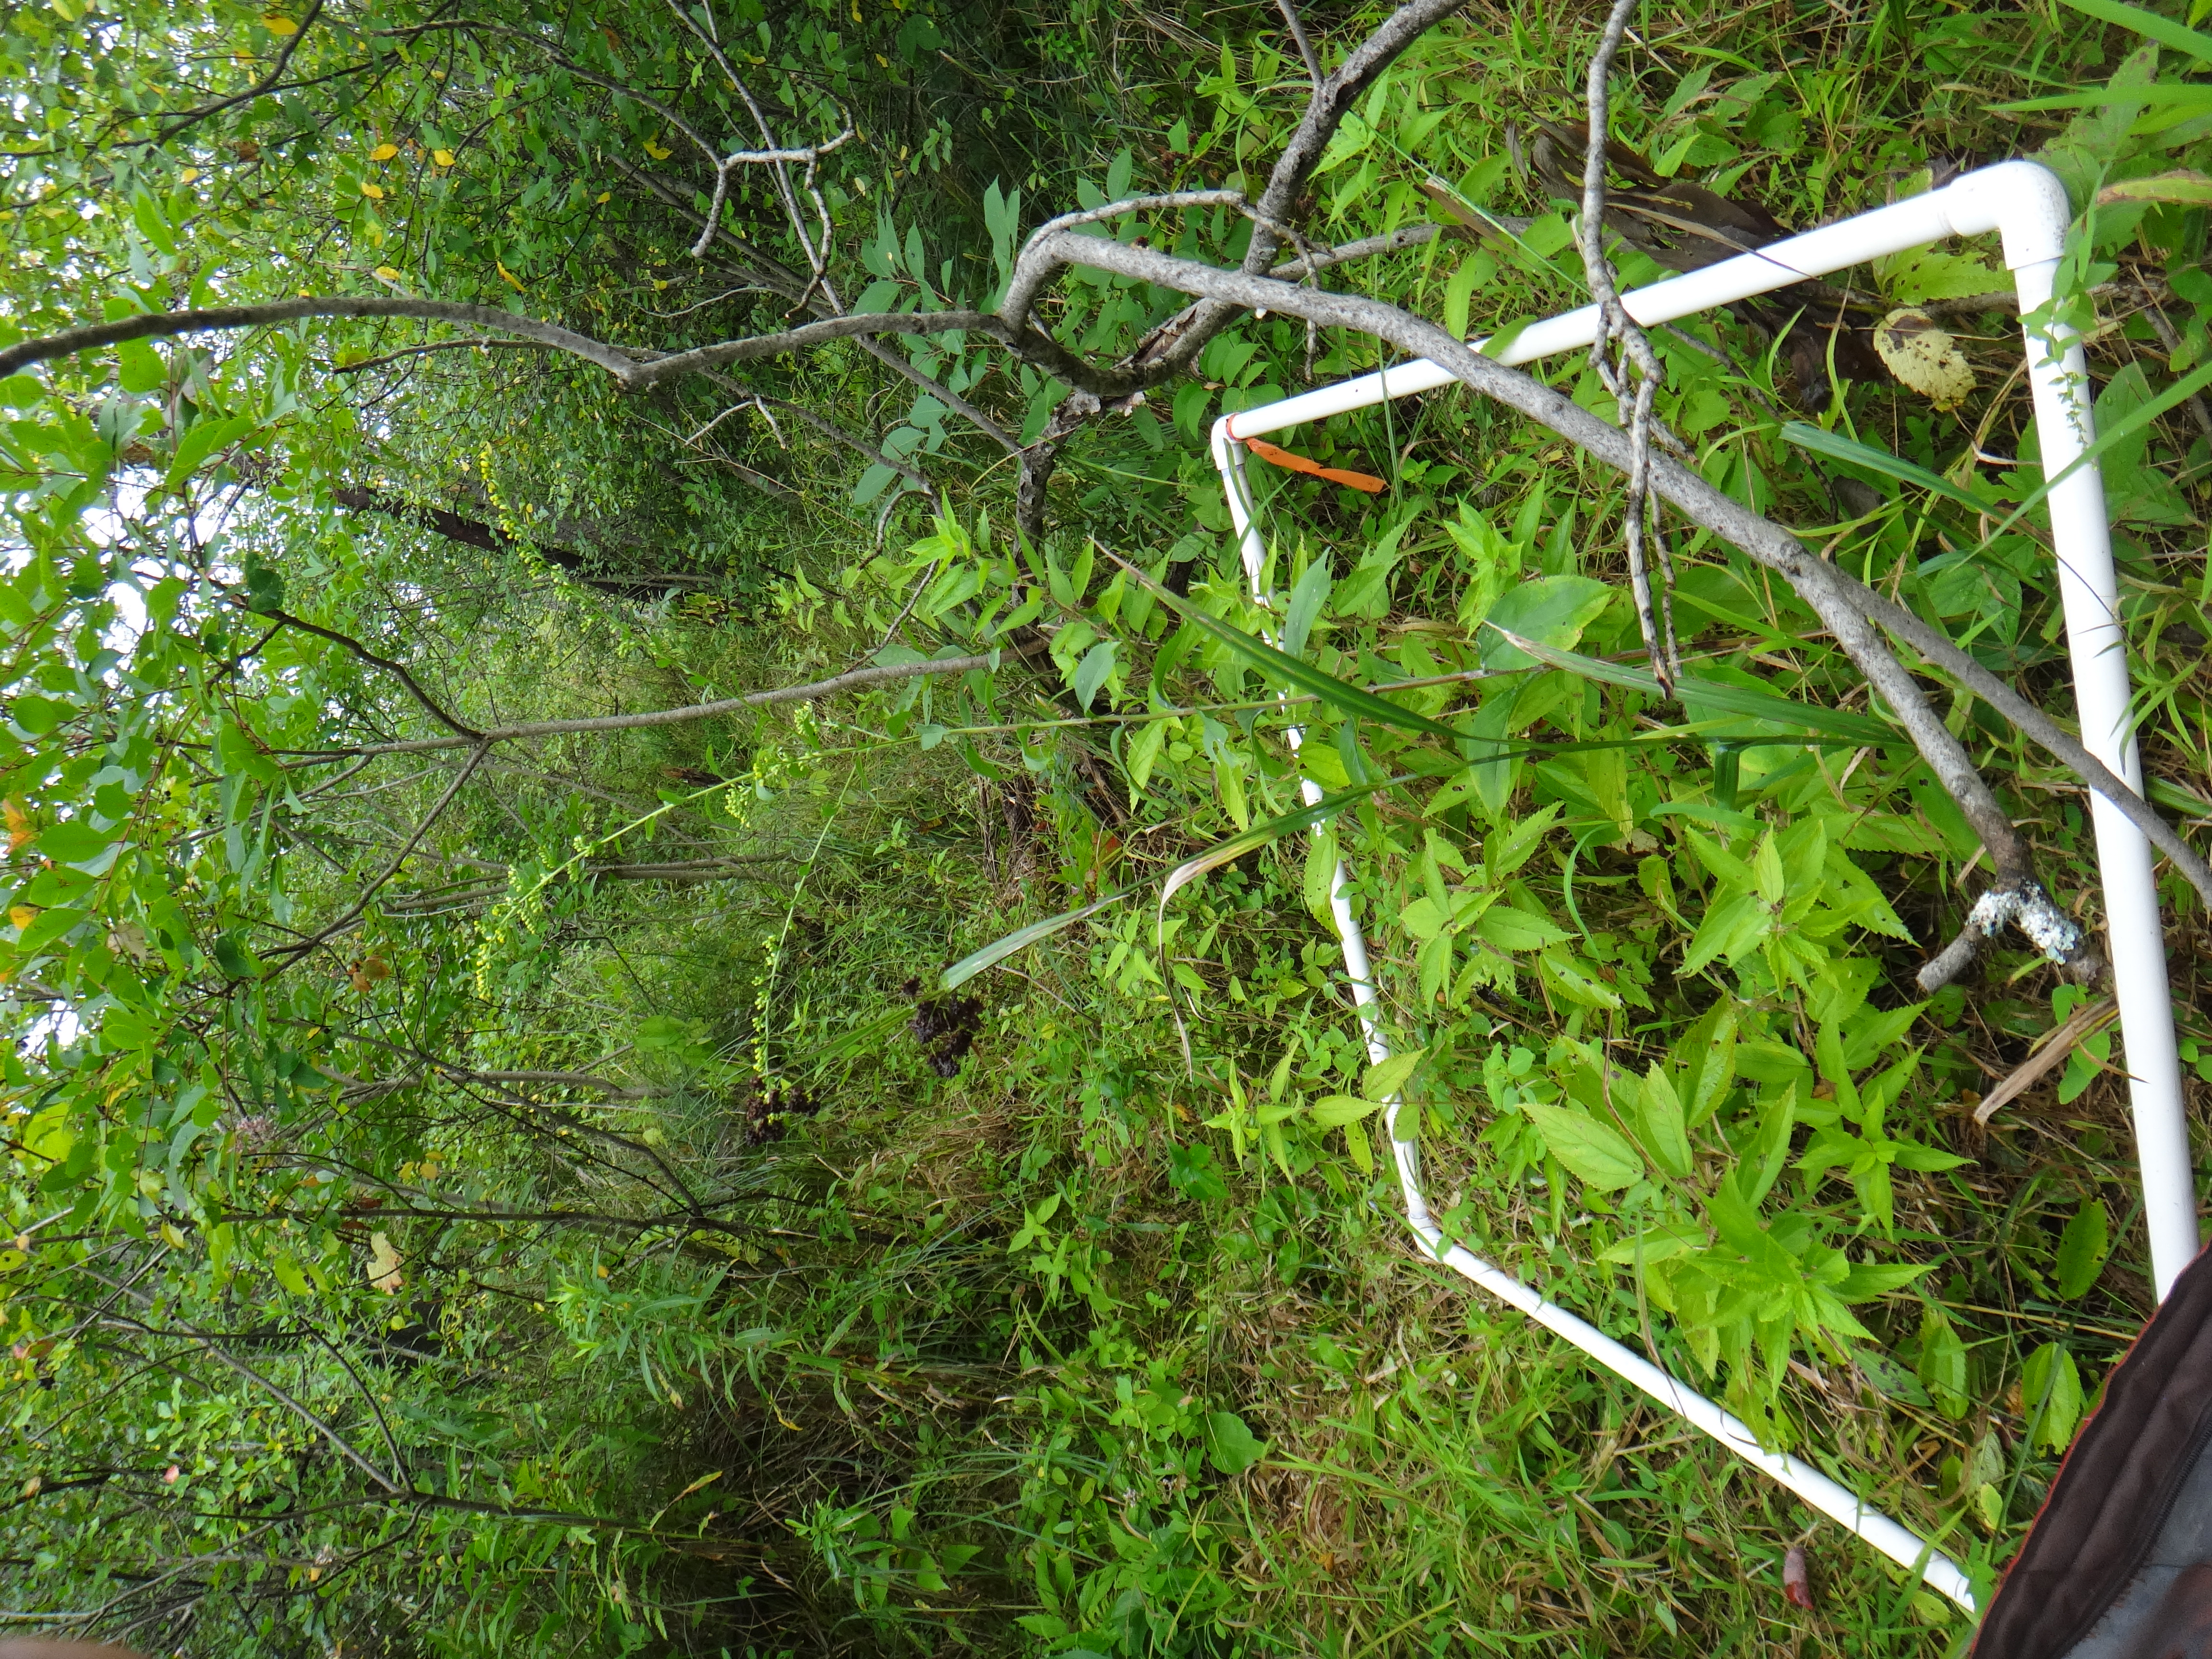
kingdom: Plantae
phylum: Tracheophyta
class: Liliopsida
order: Poales
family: Cyperaceae
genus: Scirpus
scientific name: Scirpus atrovirens
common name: Black bulrush
